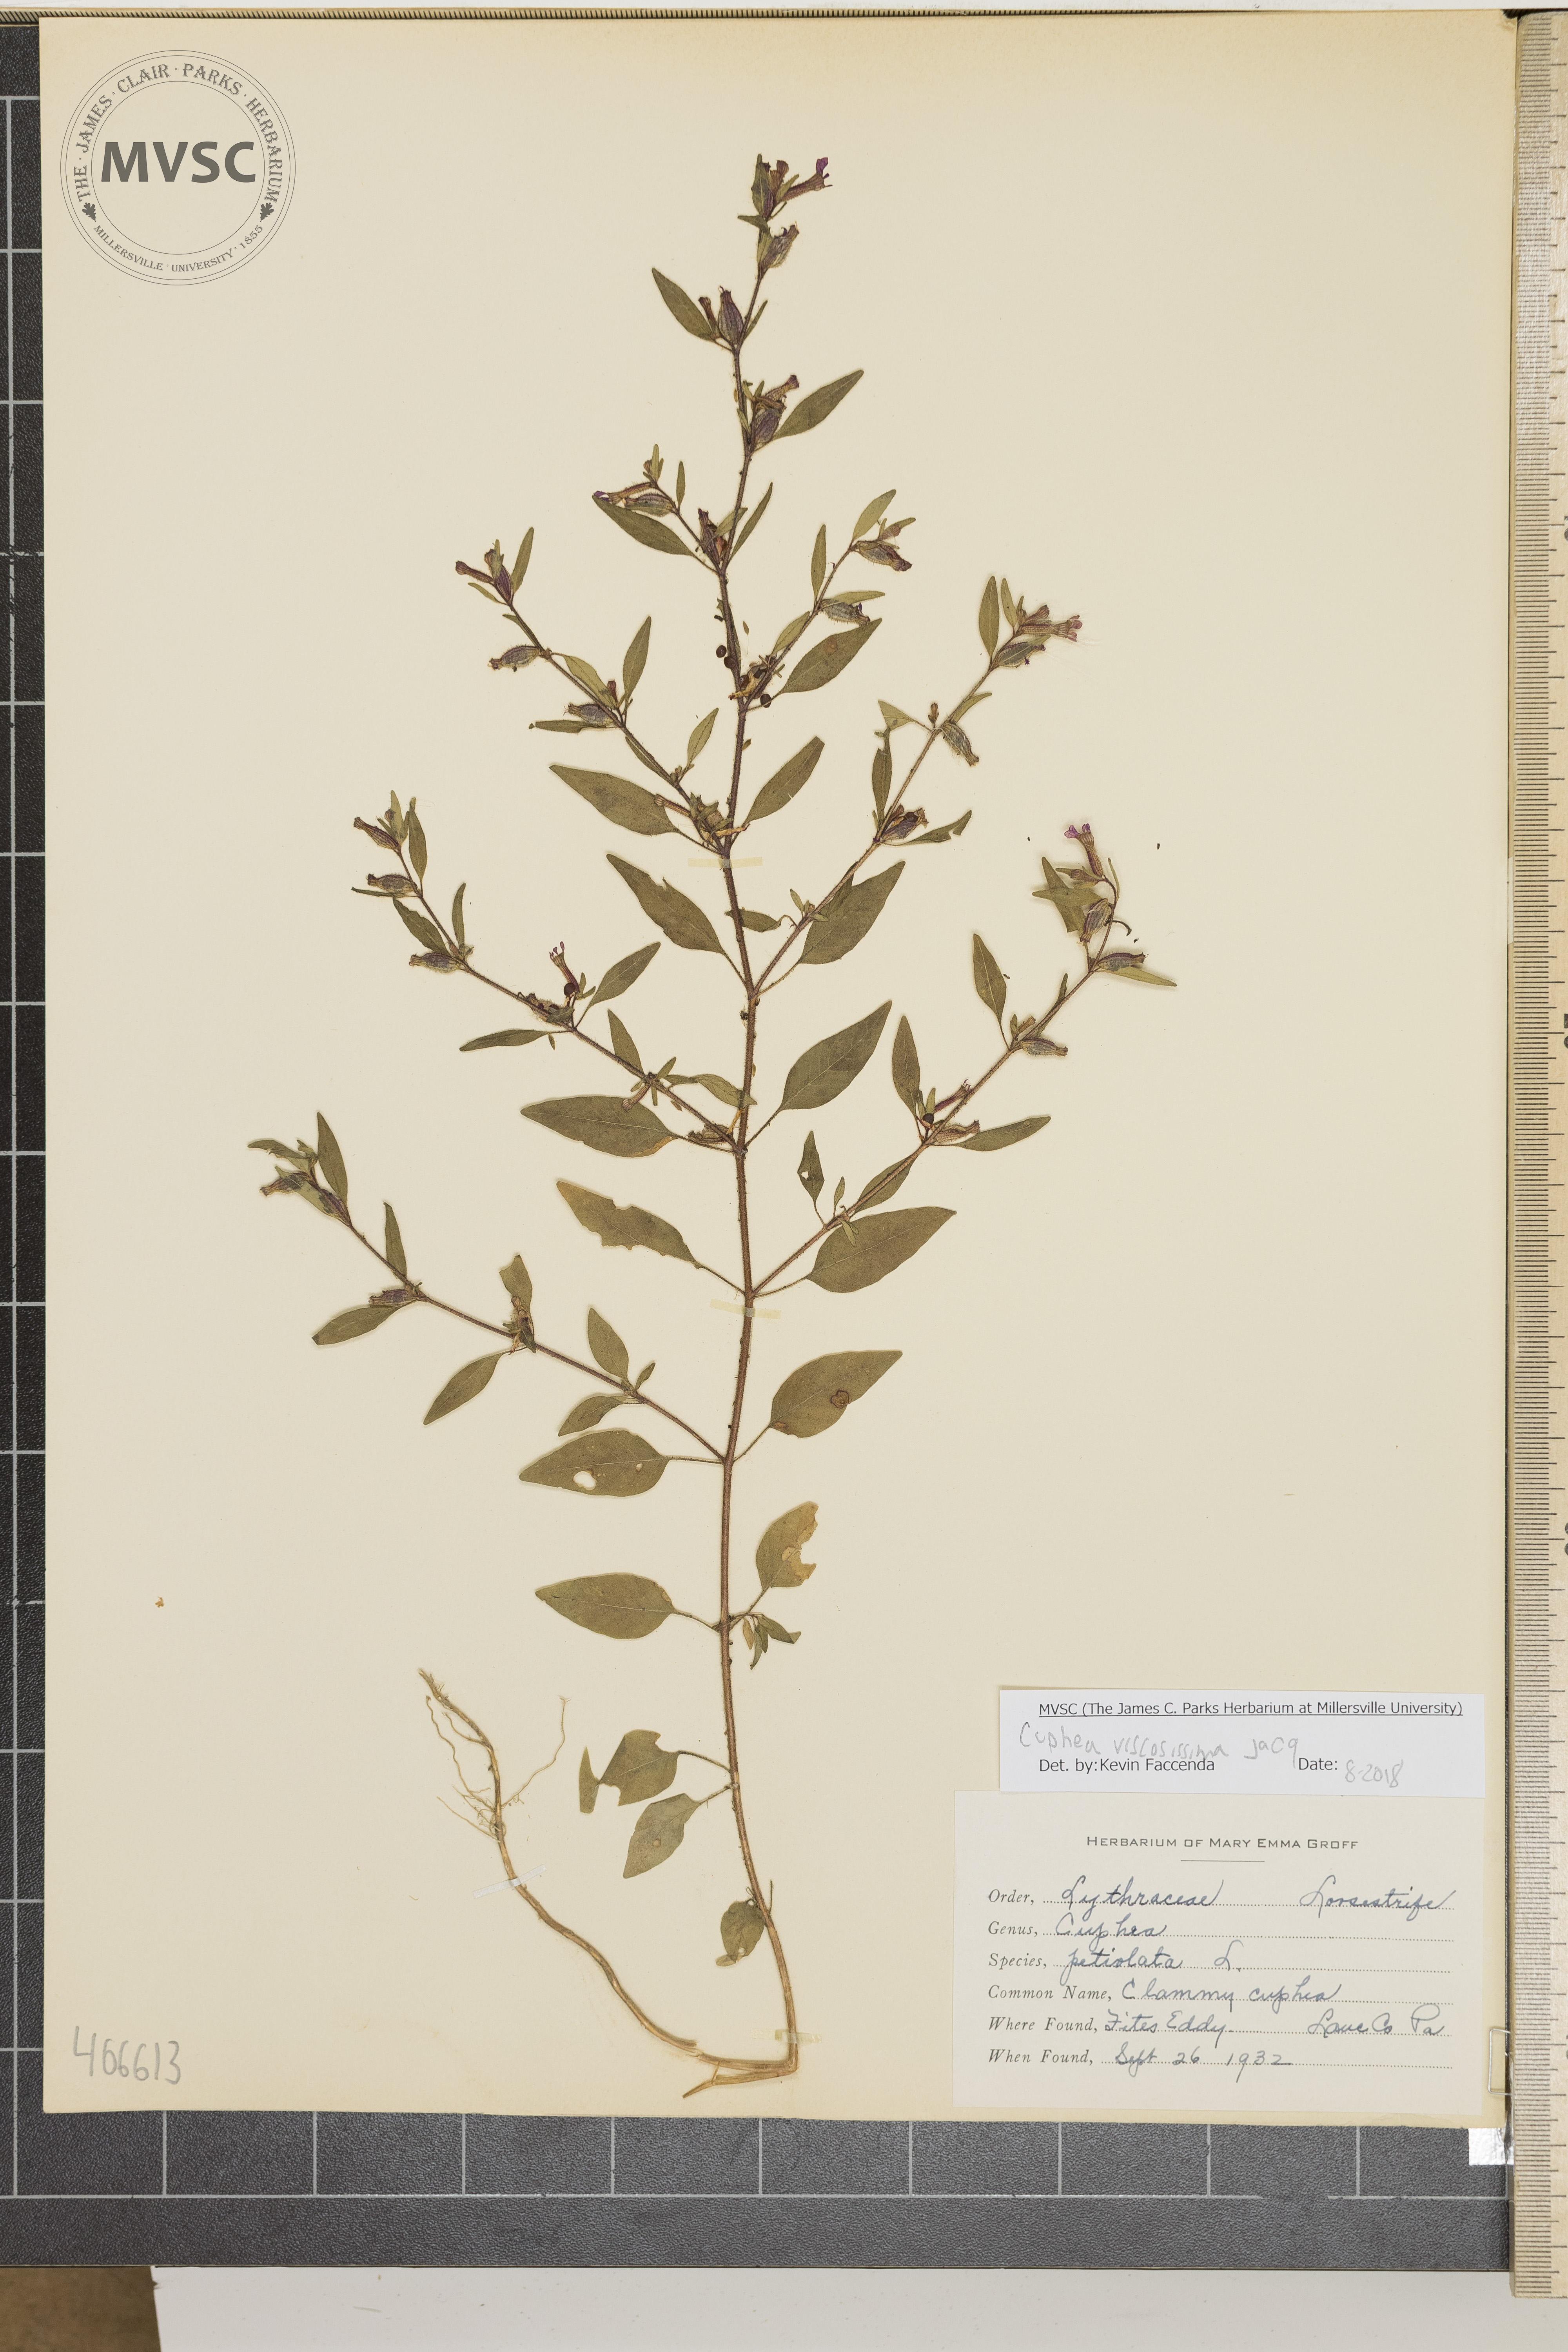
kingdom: Plantae
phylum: Tracheophyta
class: Magnoliopsida
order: Myrtales
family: Lythraceae
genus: Cuphea
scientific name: Cuphea viscosissima
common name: Clammy cuphea
